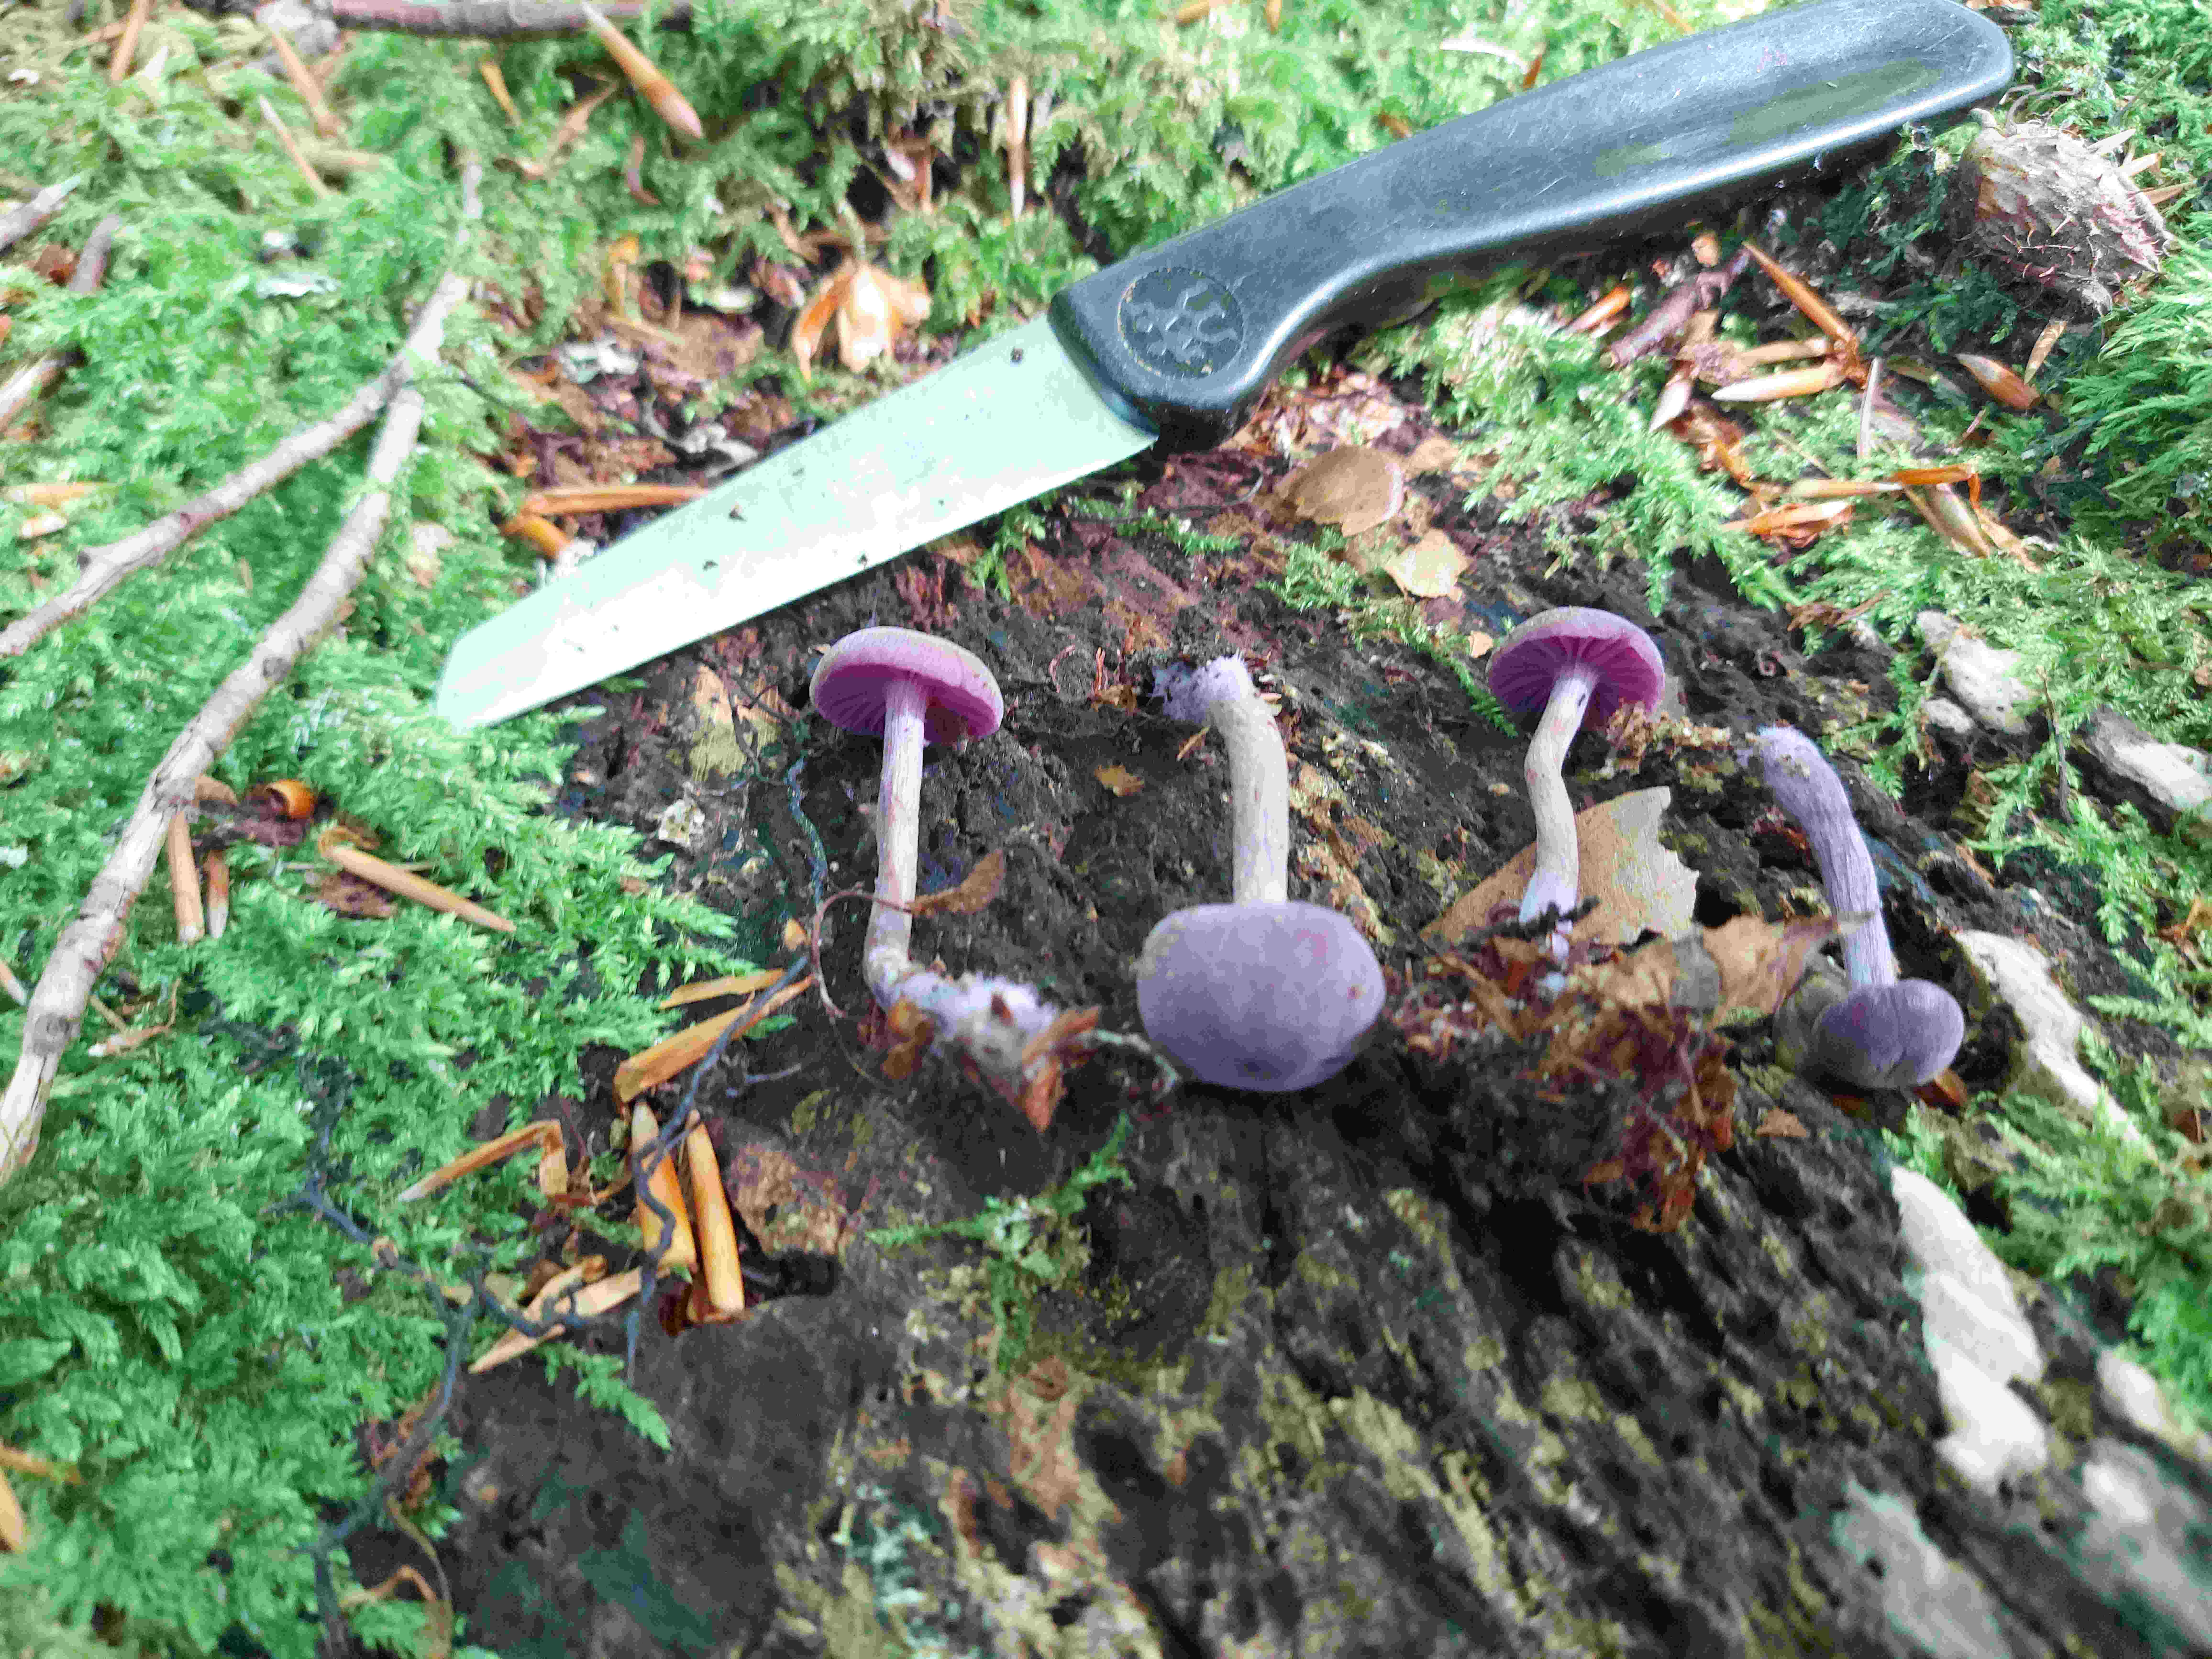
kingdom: Fungi
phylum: Basidiomycota
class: Agaricomycetes
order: Agaricales
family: Hydnangiaceae
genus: Laccaria
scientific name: Laccaria amethystina
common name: violet ametysthat
